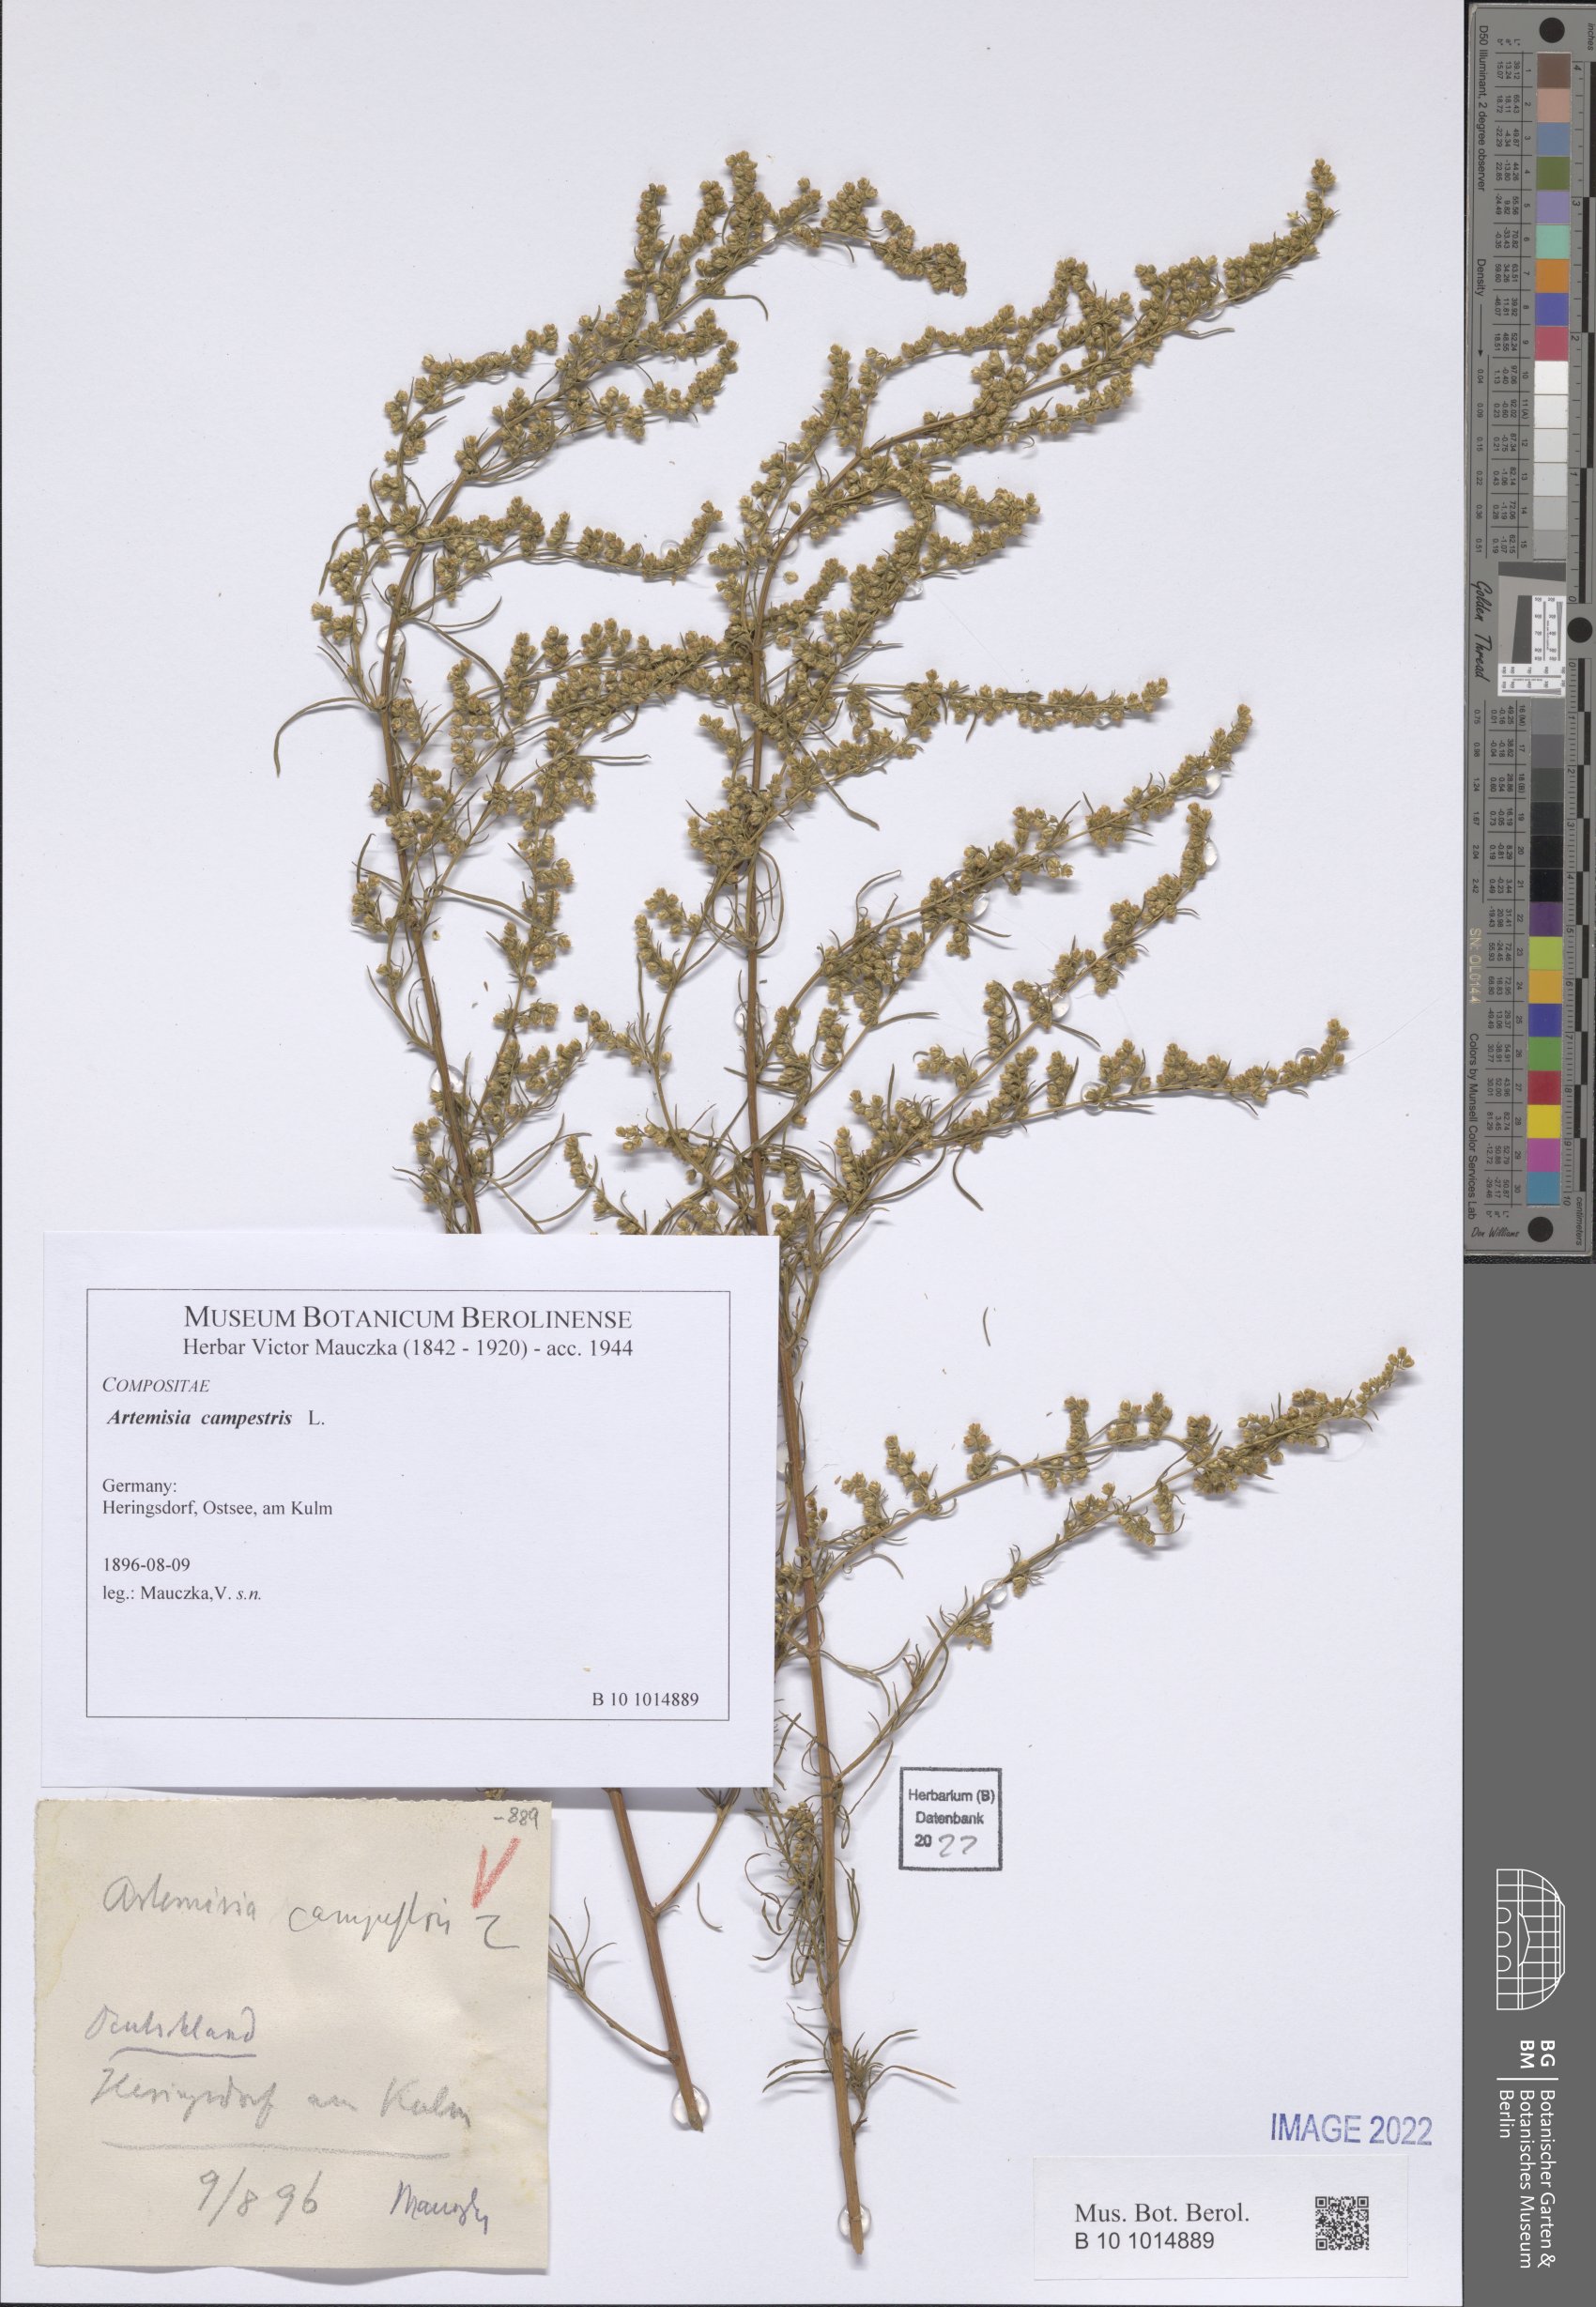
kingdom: Plantae
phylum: Tracheophyta
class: Magnoliopsida
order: Asterales
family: Asteraceae
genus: Artemisia
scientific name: Artemisia campestris
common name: Field wormwood
